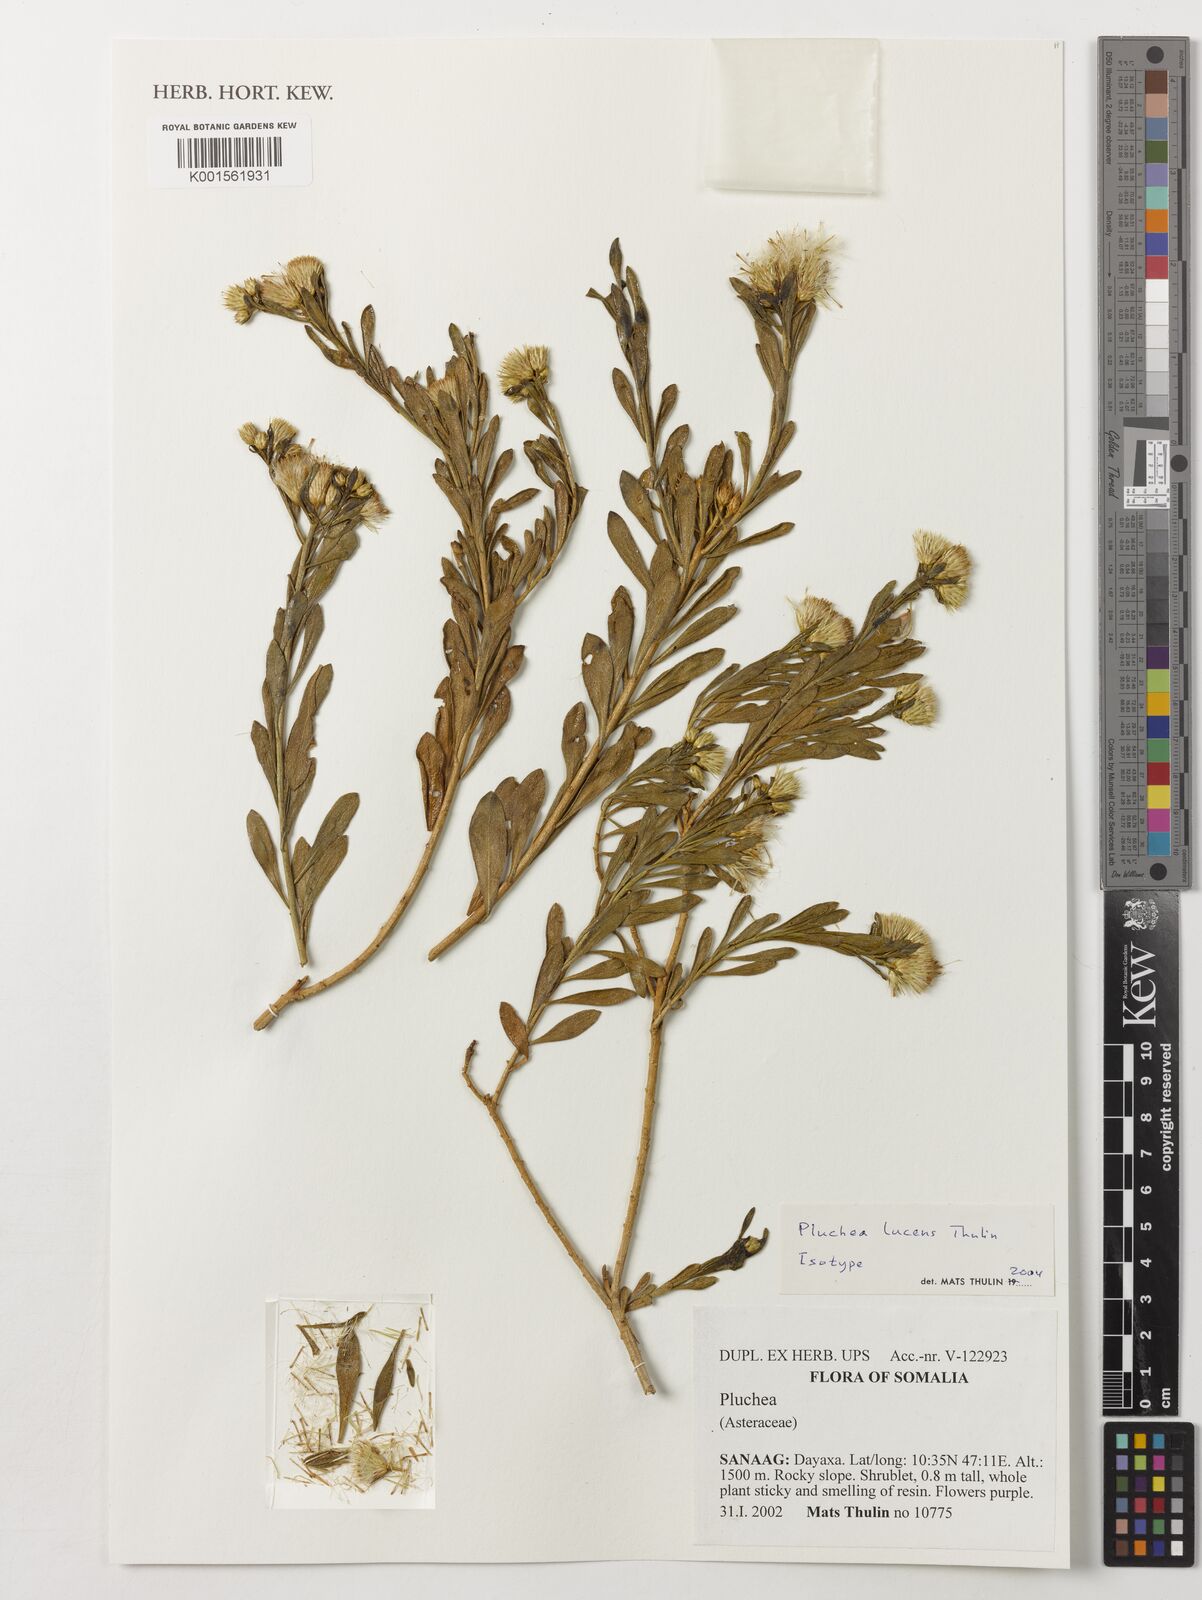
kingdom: Plantae
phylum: Tracheophyta
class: Magnoliopsida
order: Asterales
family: Asteraceae
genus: Pluchea
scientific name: Pluchea lucens
